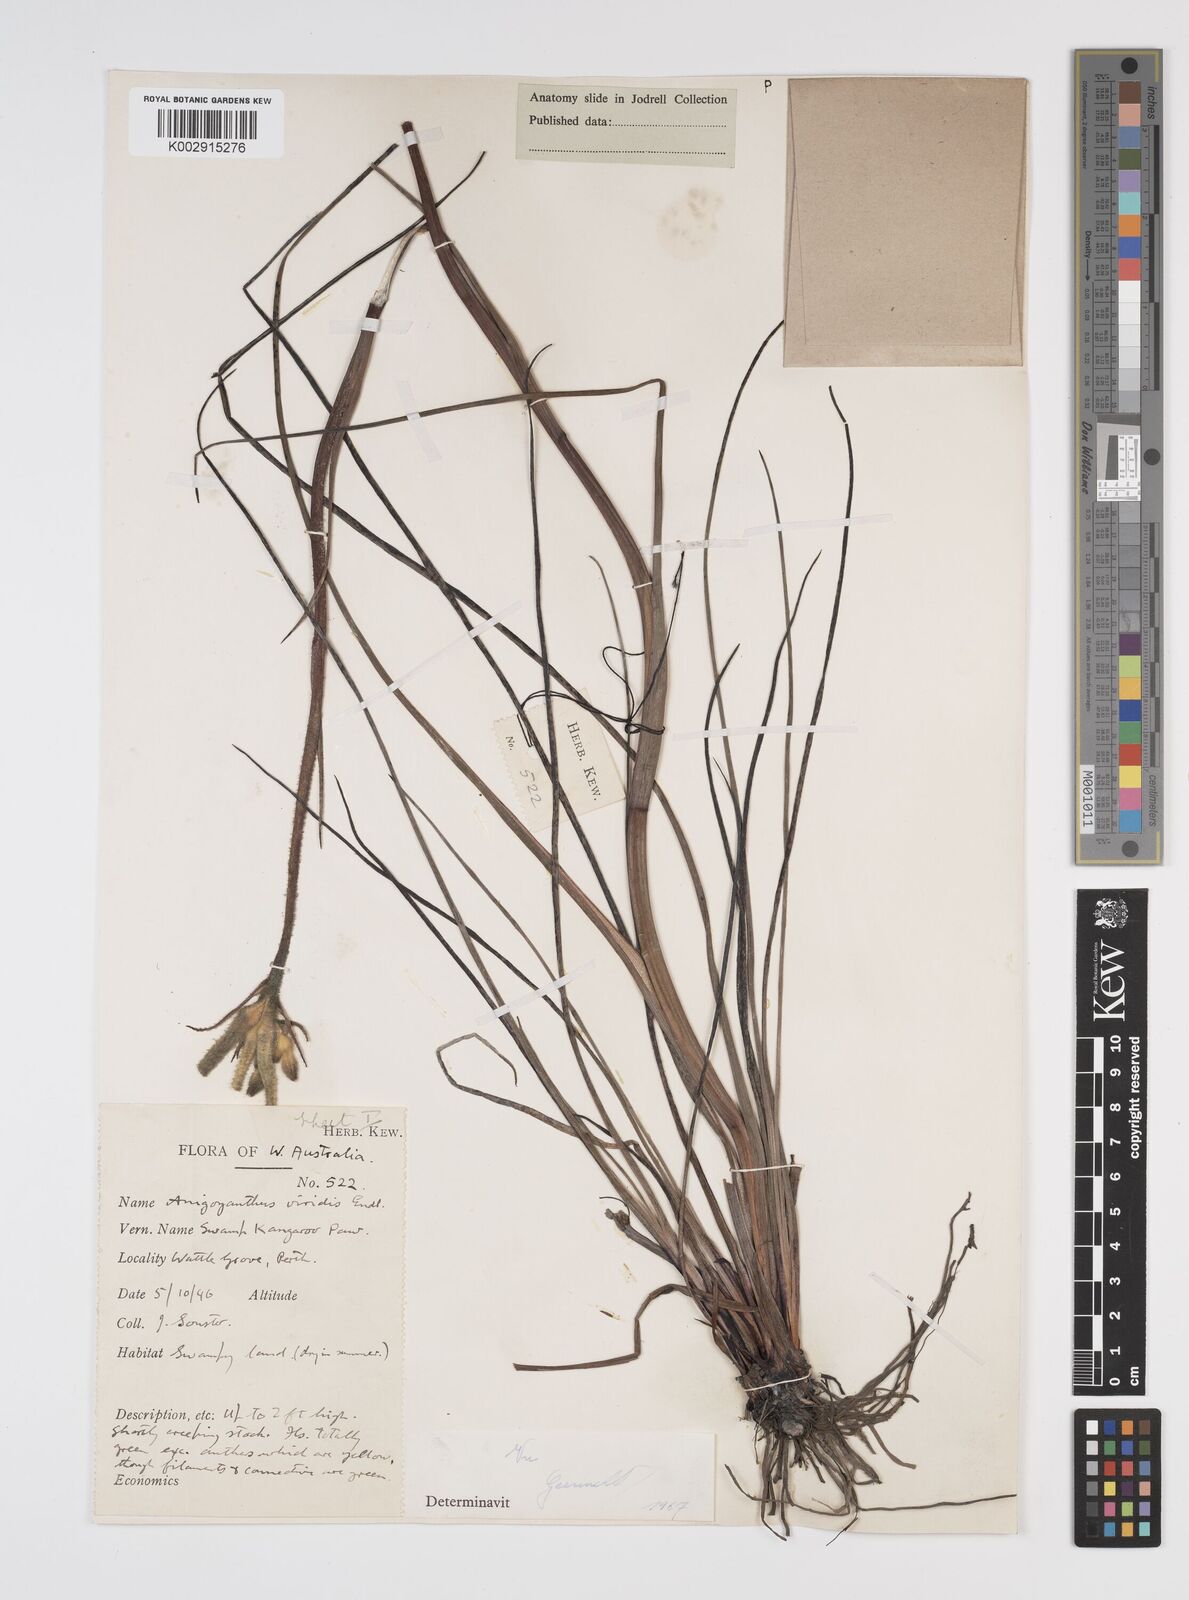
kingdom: Plantae
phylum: Tracheophyta
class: Liliopsida
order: Commelinales
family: Haemodoraceae
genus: Anigozanthos
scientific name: Anigozanthos viridis
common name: Green kangaroo-paw
